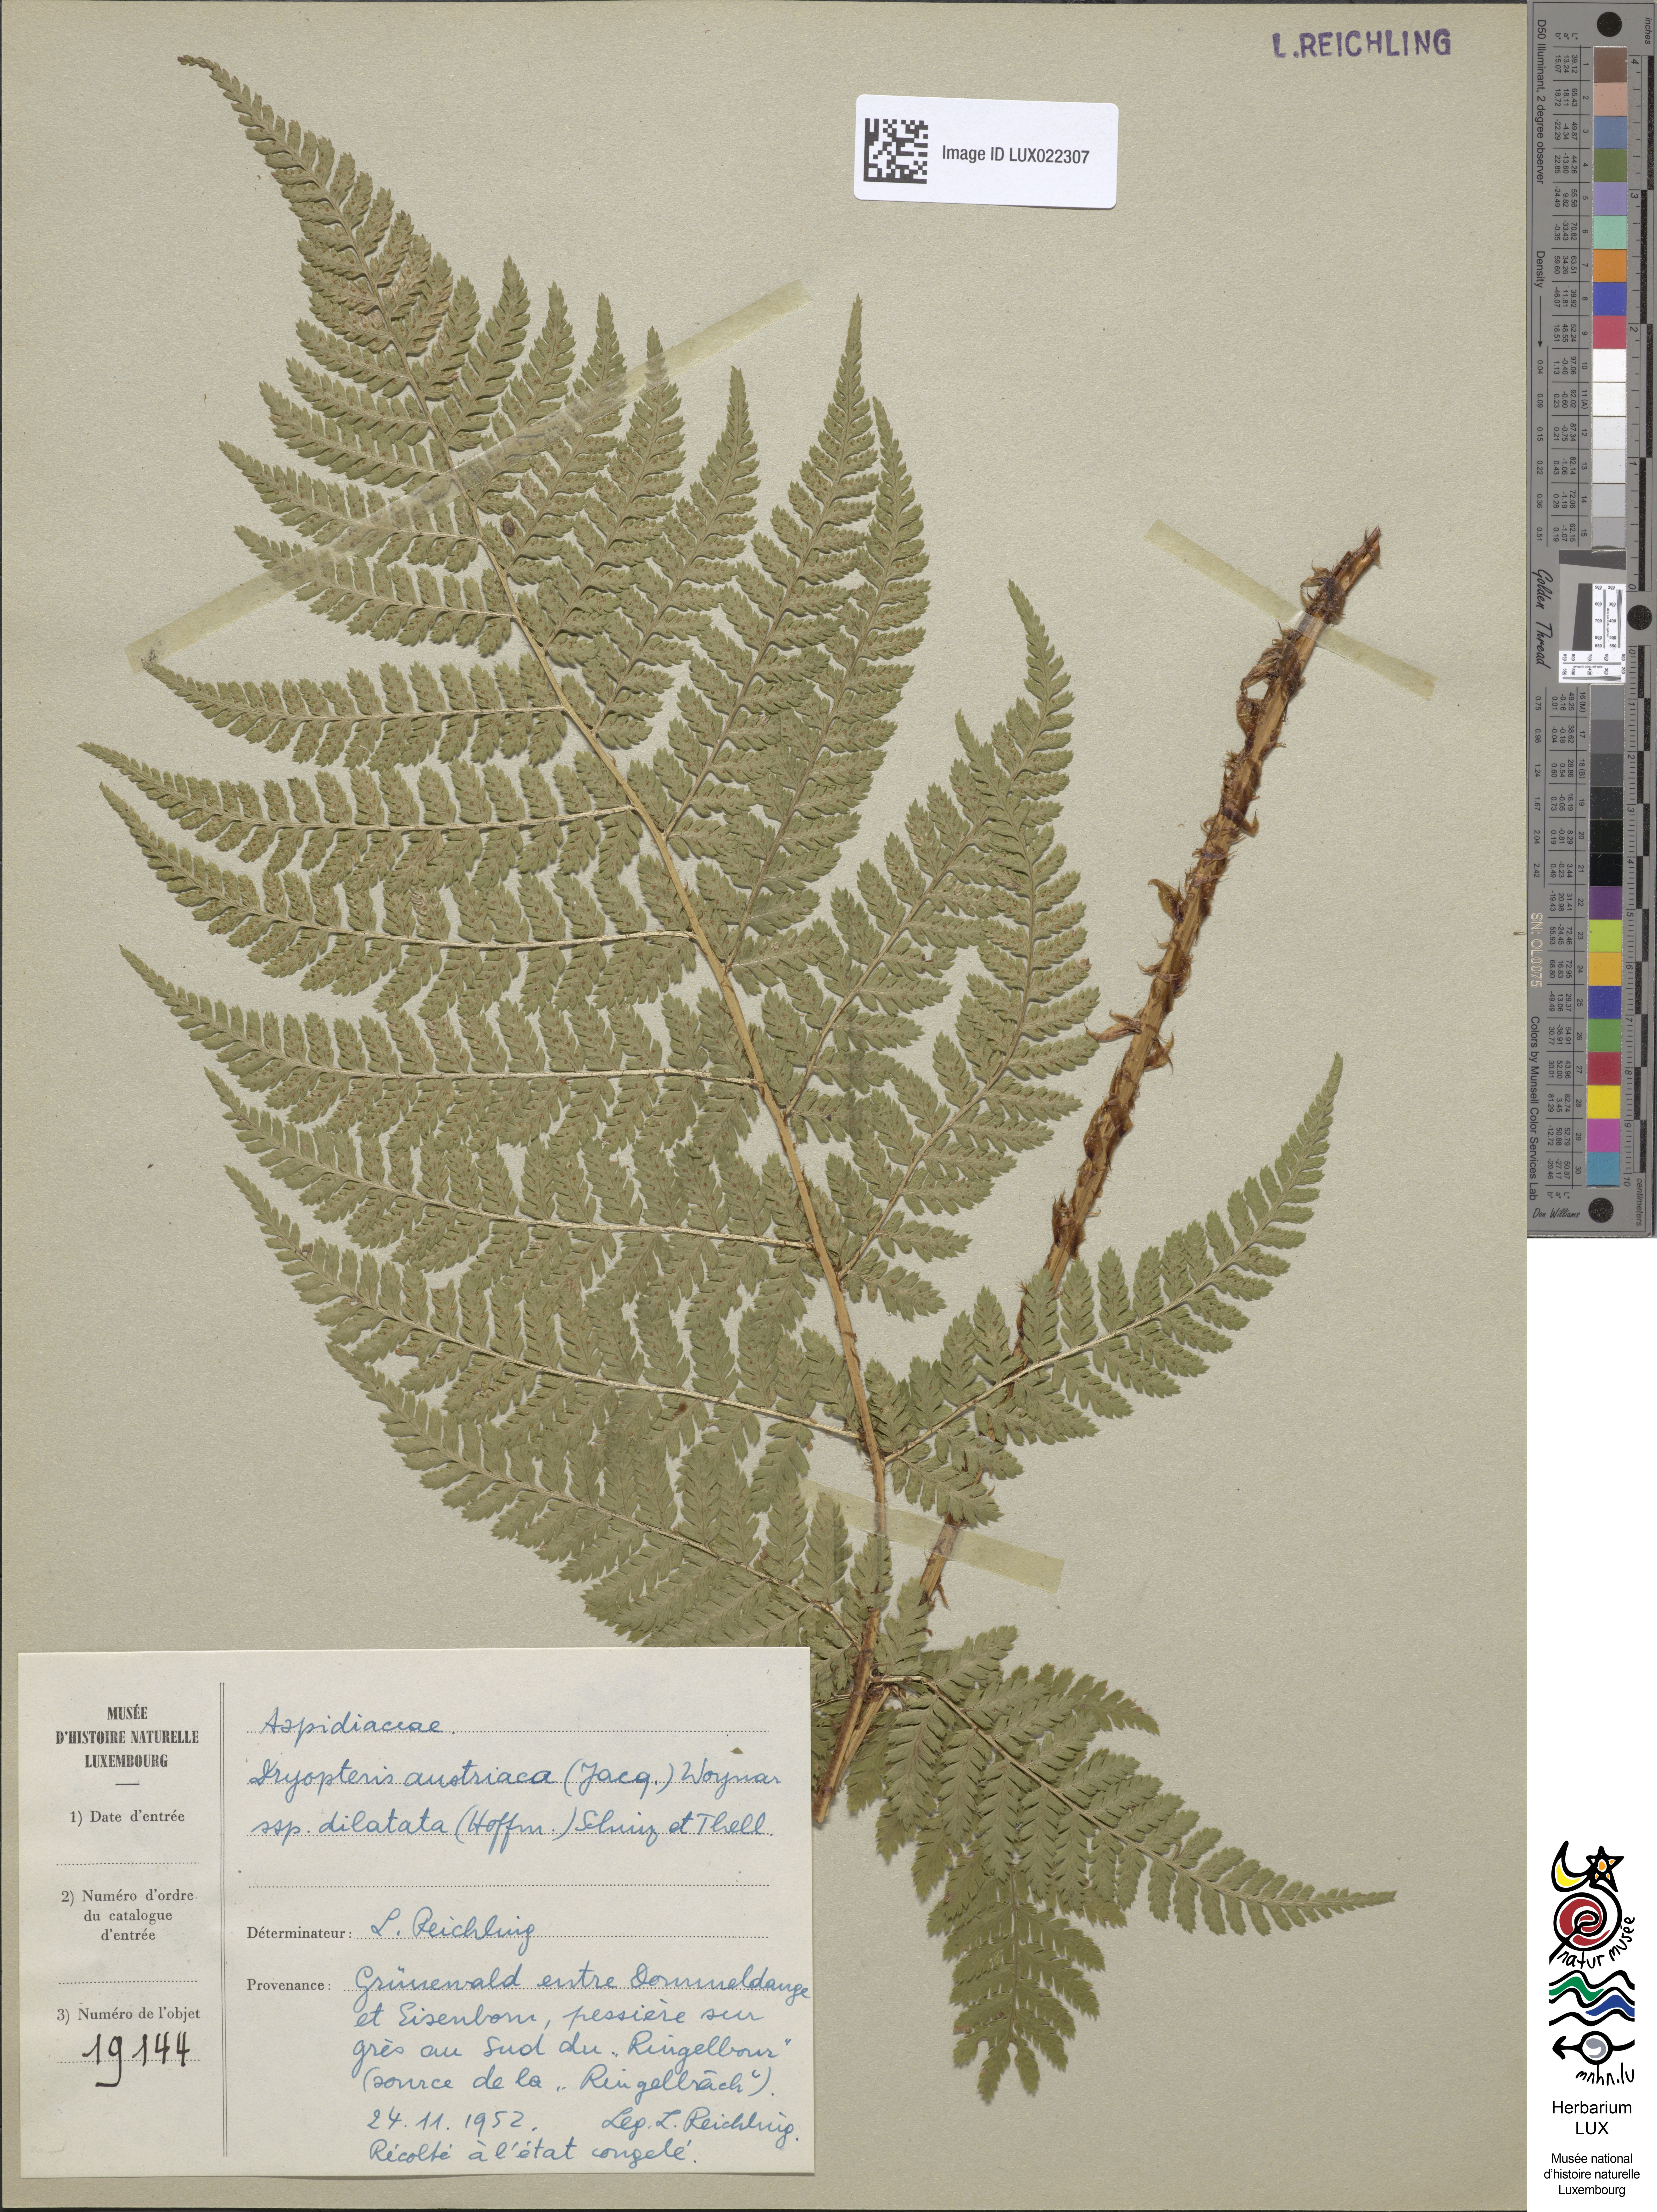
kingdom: Plantae
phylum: Tracheophyta
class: Polypodiopsida
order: Polypodiales
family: Dryopteridaceae
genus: Dryopteris
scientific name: Dryopteris dilatata
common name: Broad buckler-fern
